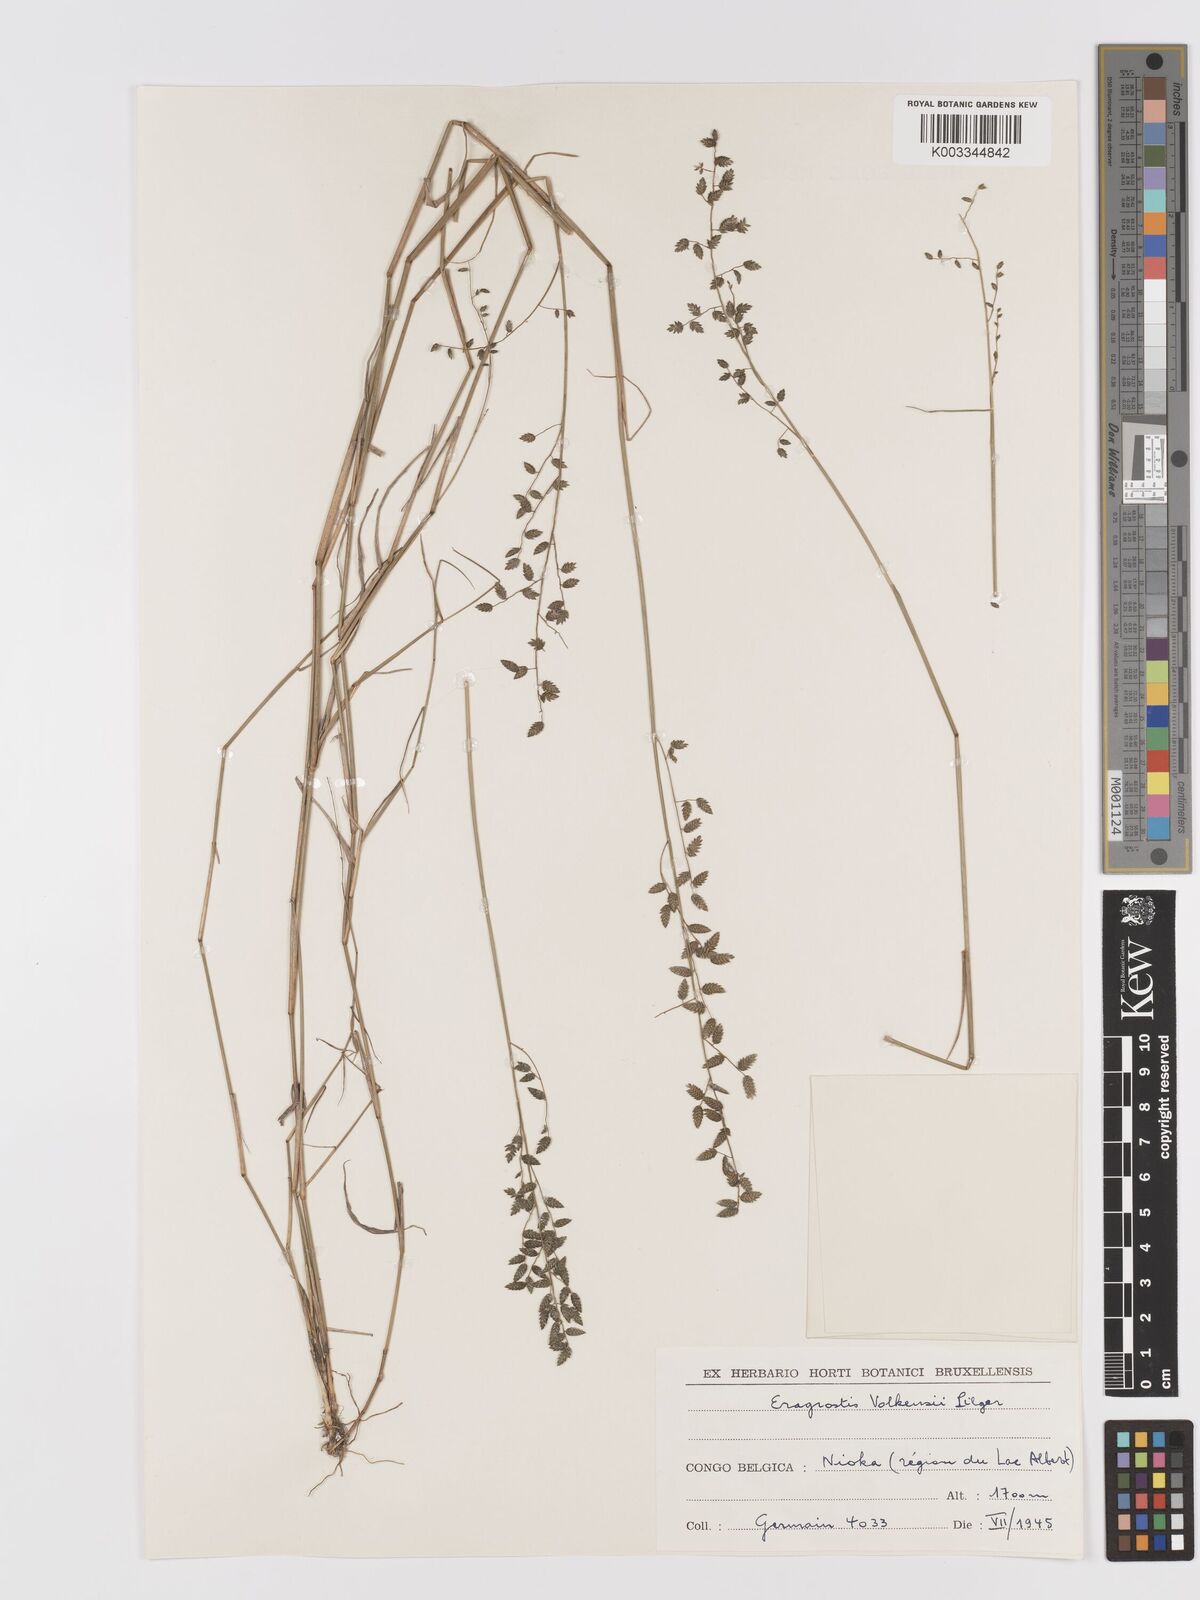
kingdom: Plantae
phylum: Tracheophyta
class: Liliopsida
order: Poales
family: Poaceae
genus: Eragrostis
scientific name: Eragrostis volkensii
